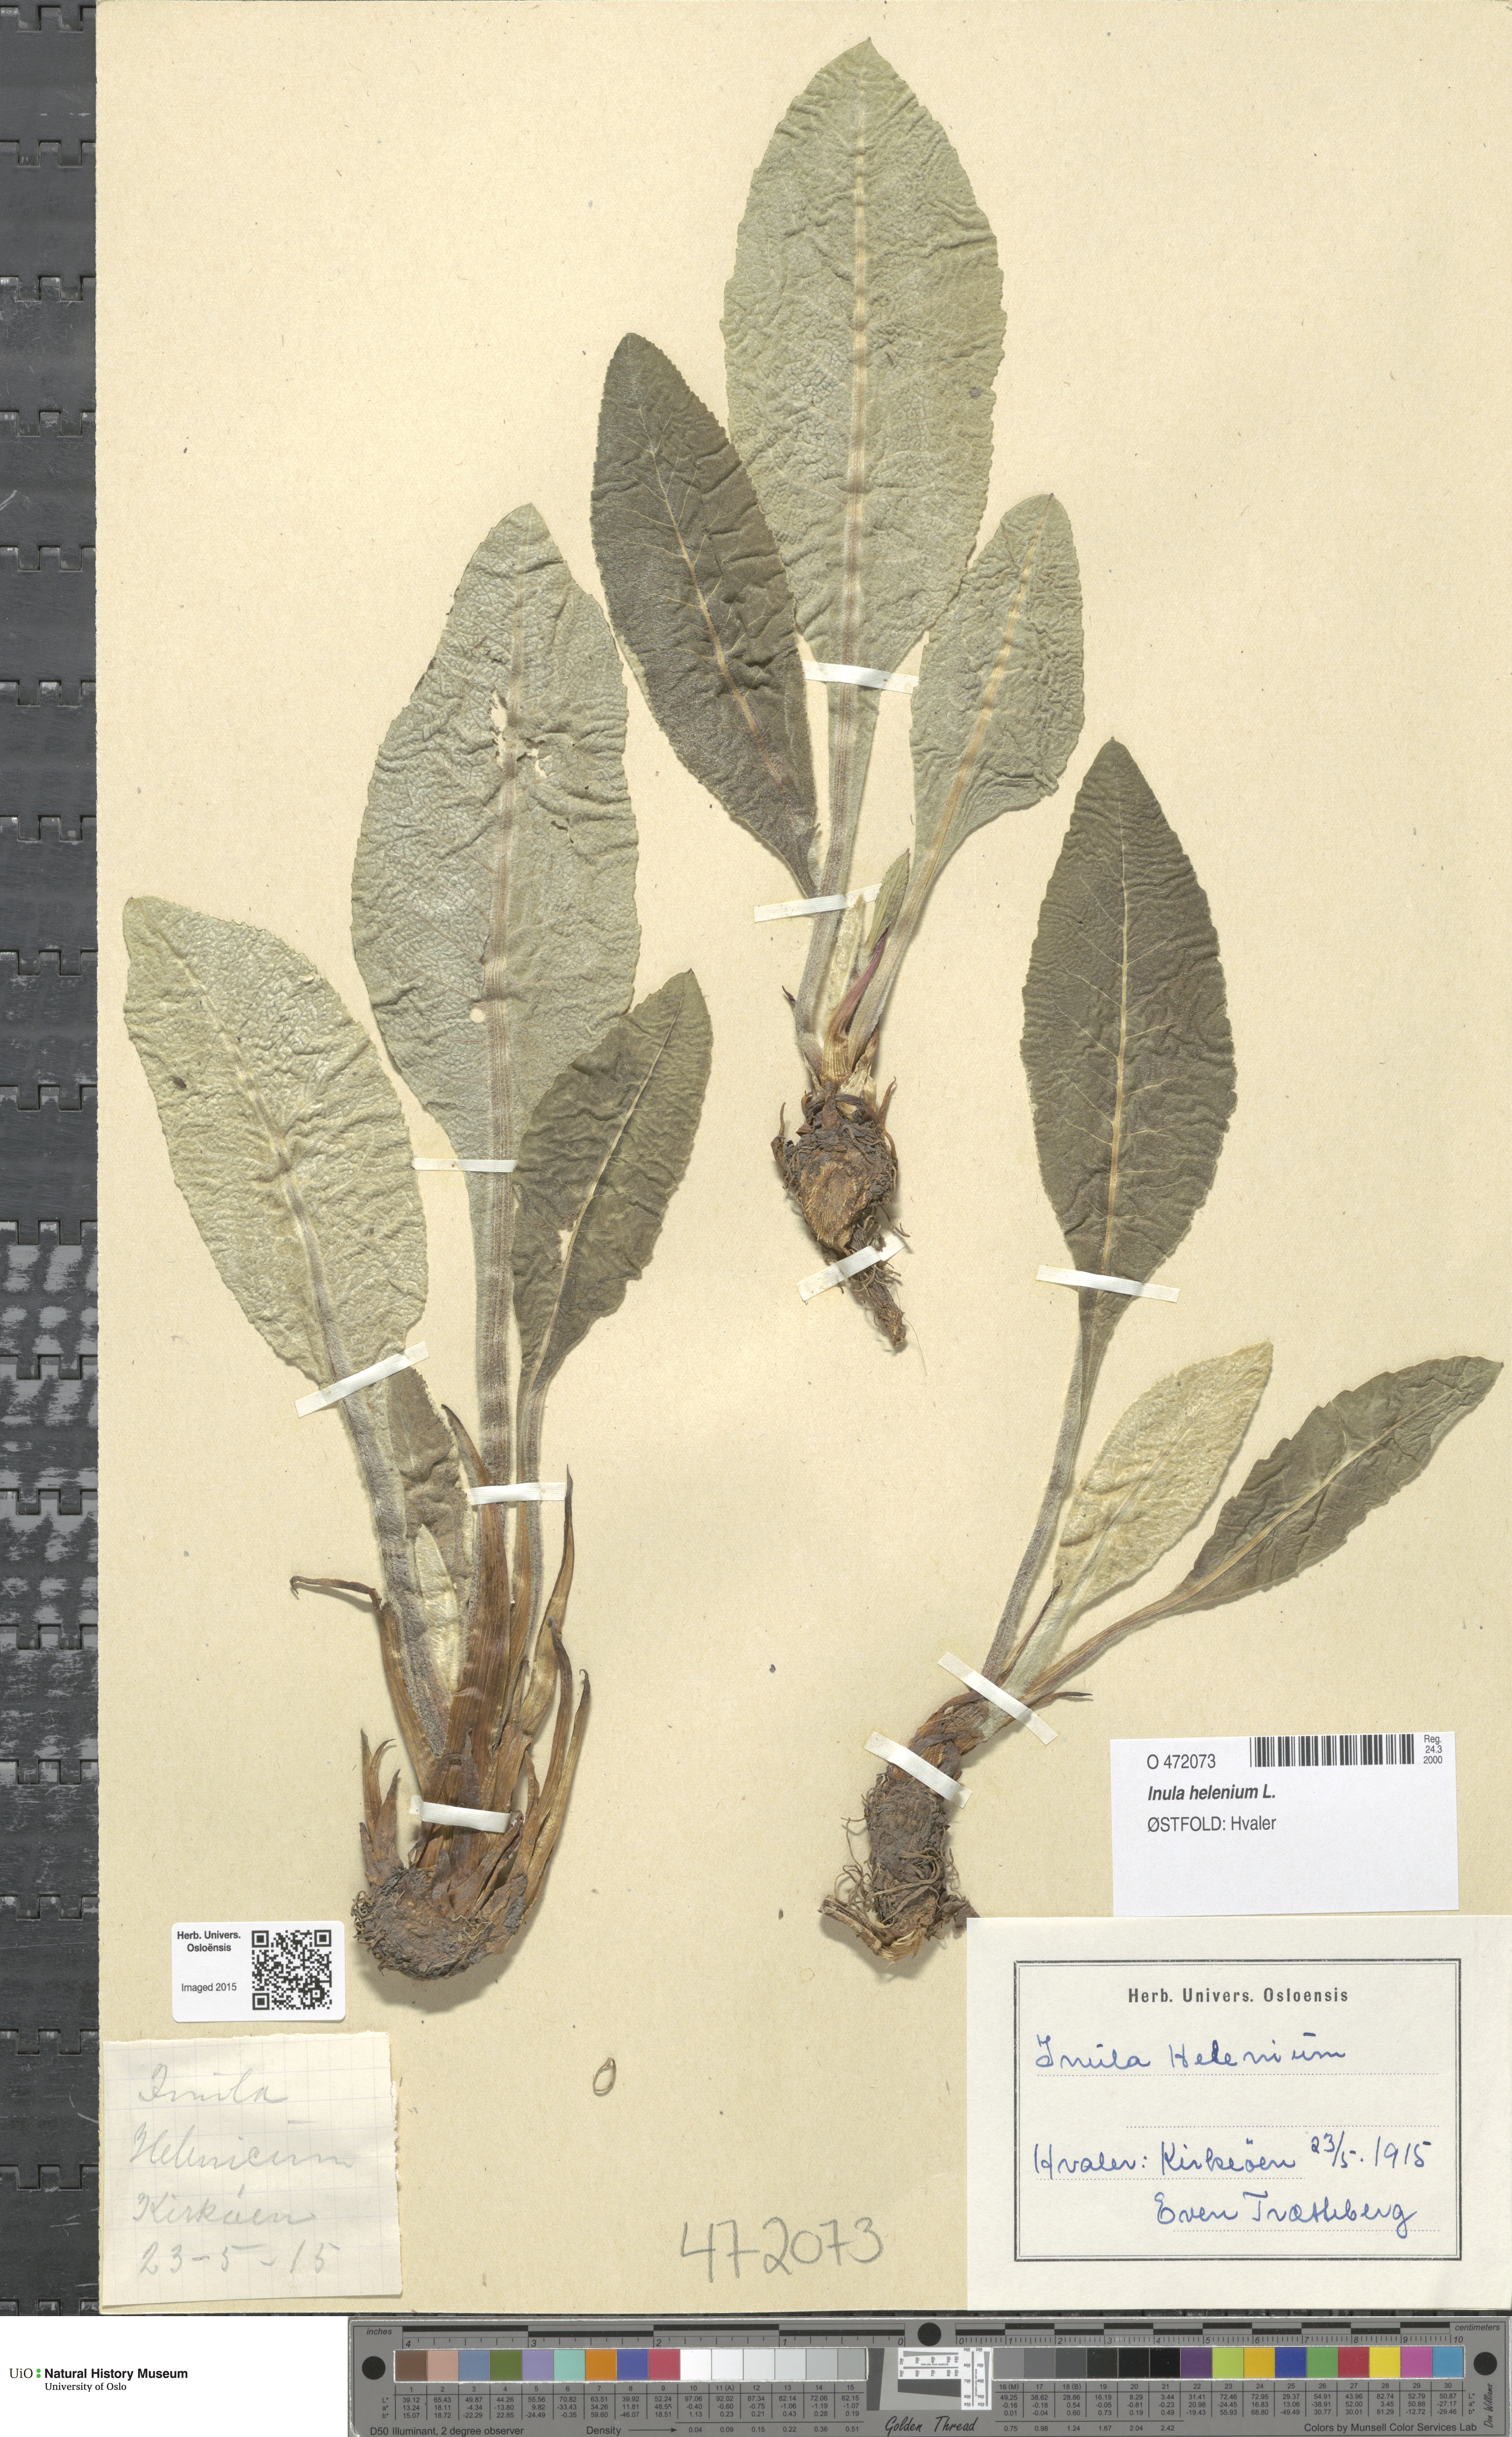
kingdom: Plantae
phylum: Tracheophyta
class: Magnoliopsida
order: Asterales
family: Asteraceae
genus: Inula
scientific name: Inula helenium
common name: Elecampane
